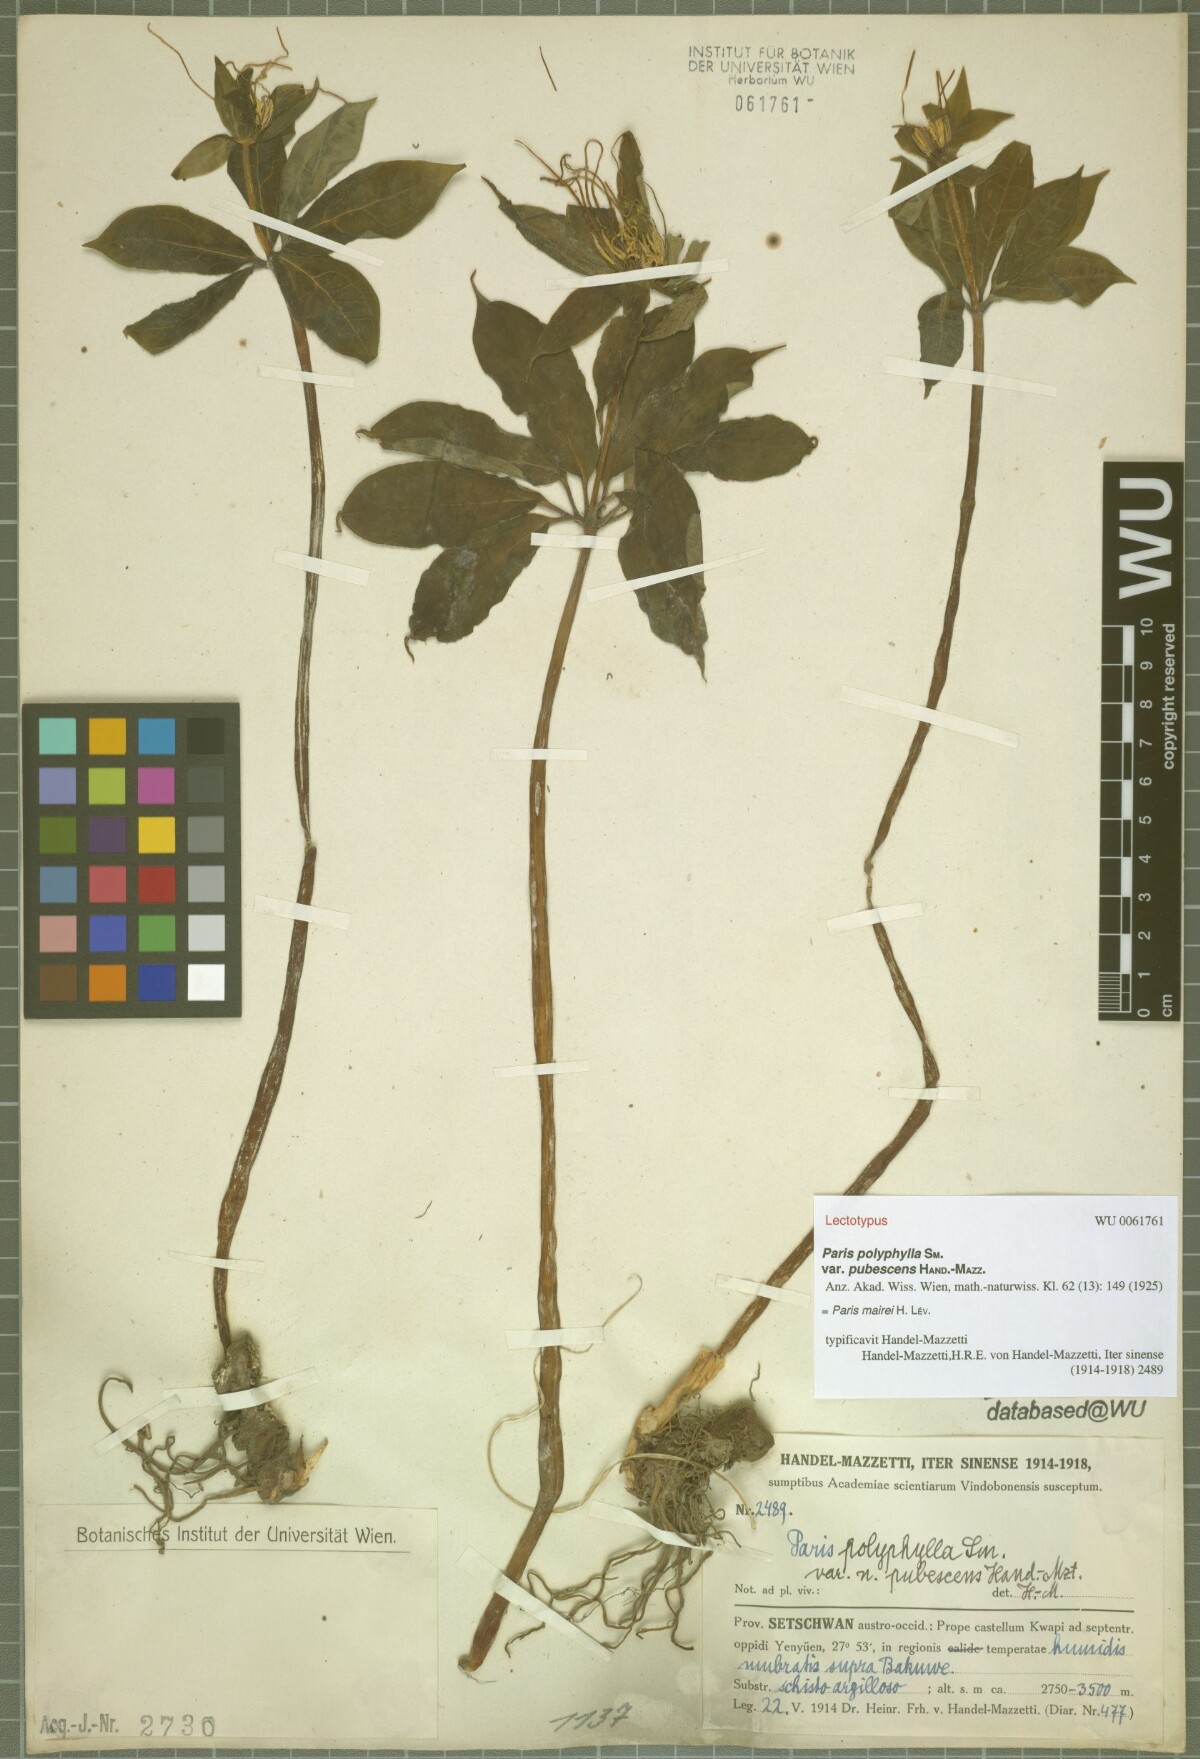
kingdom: Plantae
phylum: Tracheophyta
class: Liliopsida
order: Liliales
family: Melanthiaceae
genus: Paris
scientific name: Paris mairei
